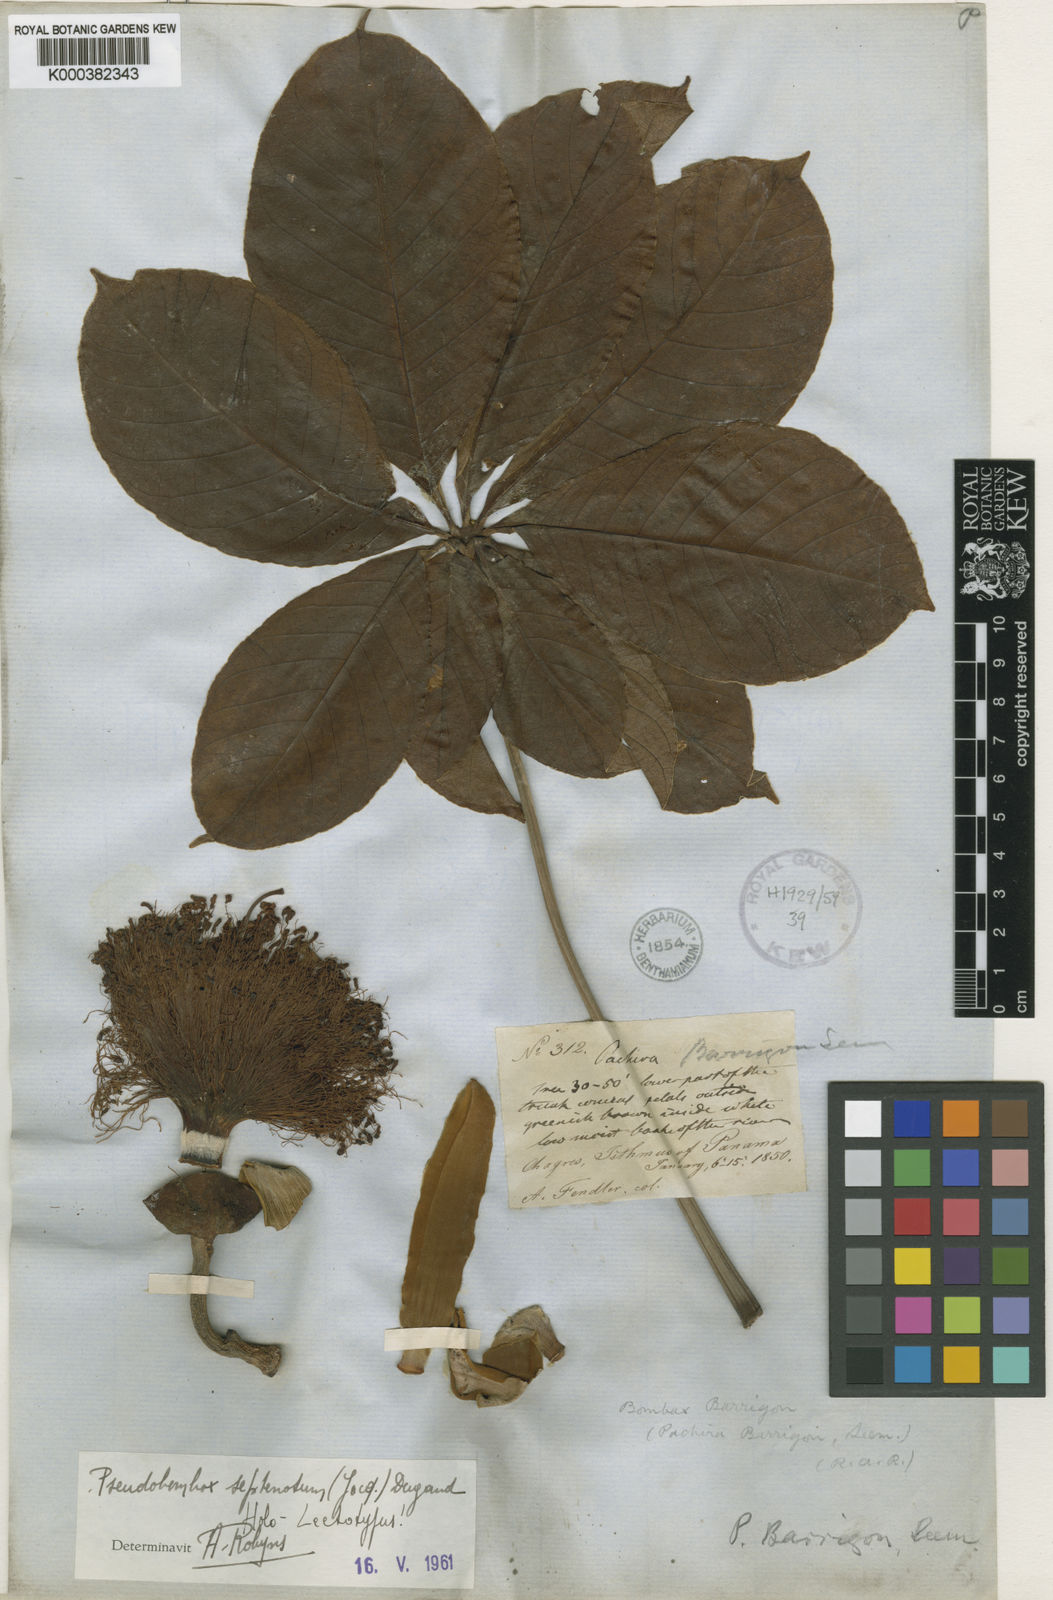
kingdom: Plantae
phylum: Tracheophyta
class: Magnoliopsida
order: Malvales
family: Malvaceae
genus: Pseudobombax
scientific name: Pseudobombax septenatum
